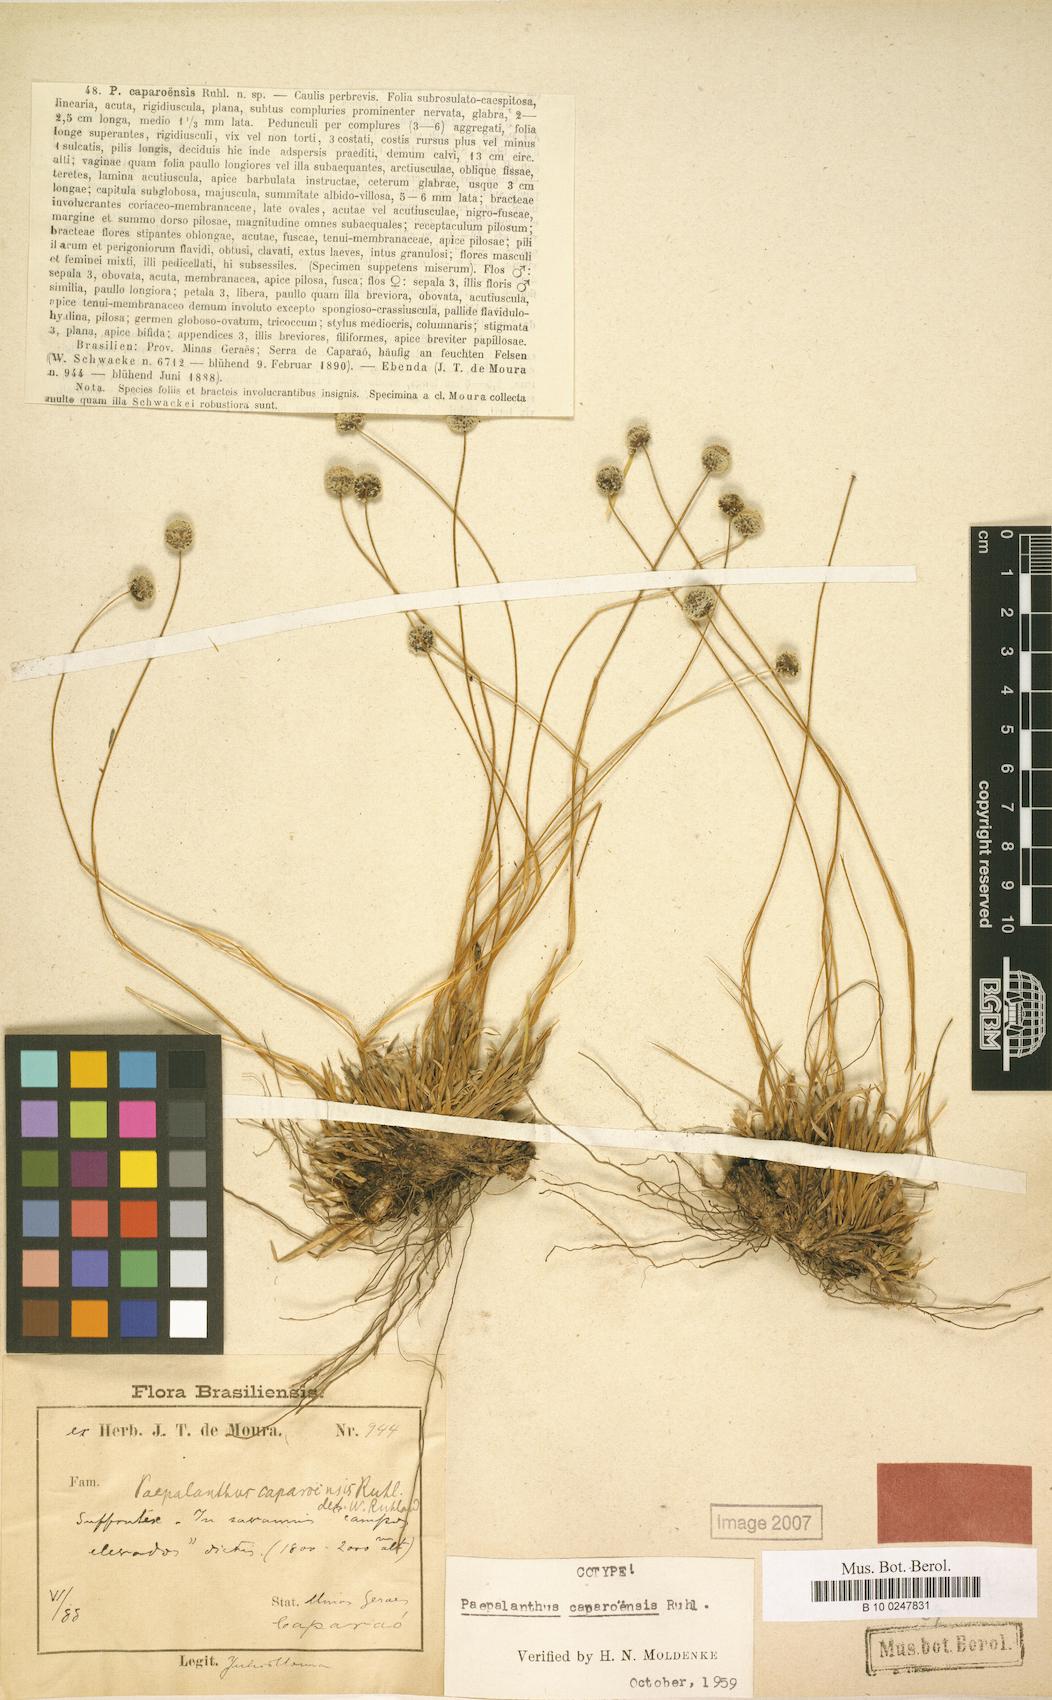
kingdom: Plantae
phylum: Tracheophyta
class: Liliopsida
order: Poales
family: Eriocaulaceae
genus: Paepalanthus
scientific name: Paepalanthus caparoensis
